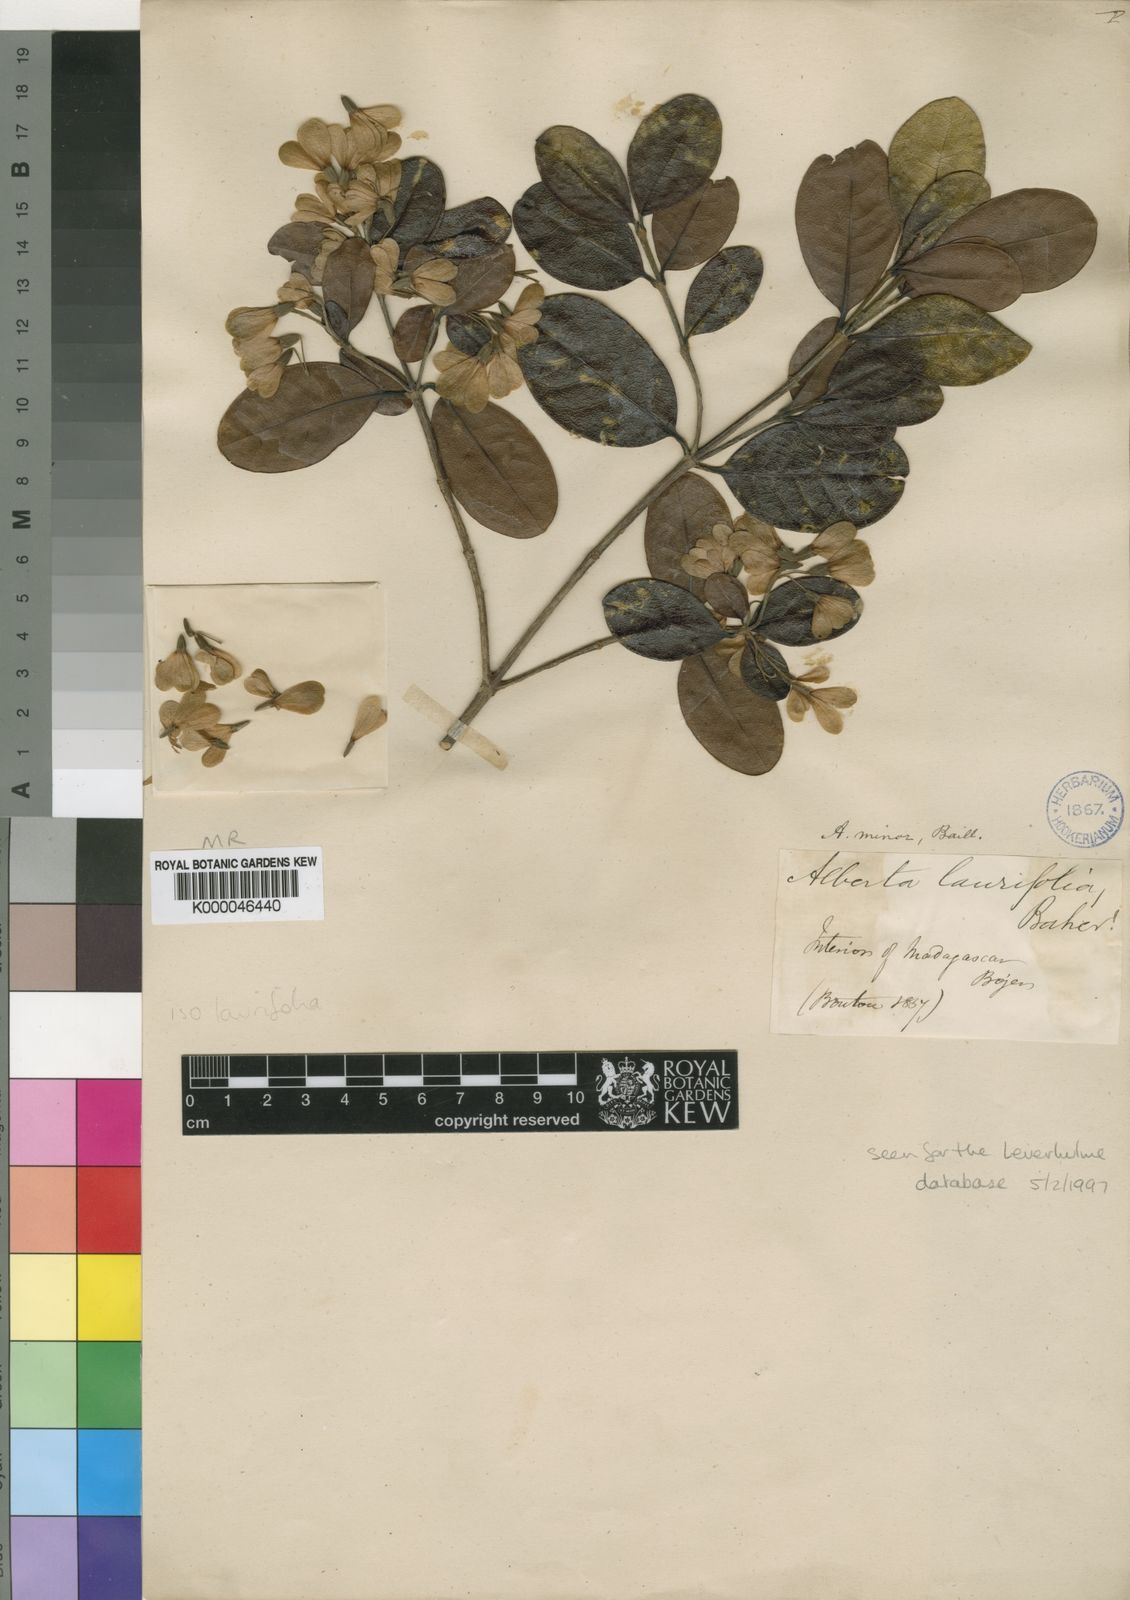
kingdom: Plantae
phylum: Tracheophyta
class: Magnoliopsida
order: Gentianales
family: Rubiaceae
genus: Razafimandimbisonia
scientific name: Razafimandimbisonia minor
